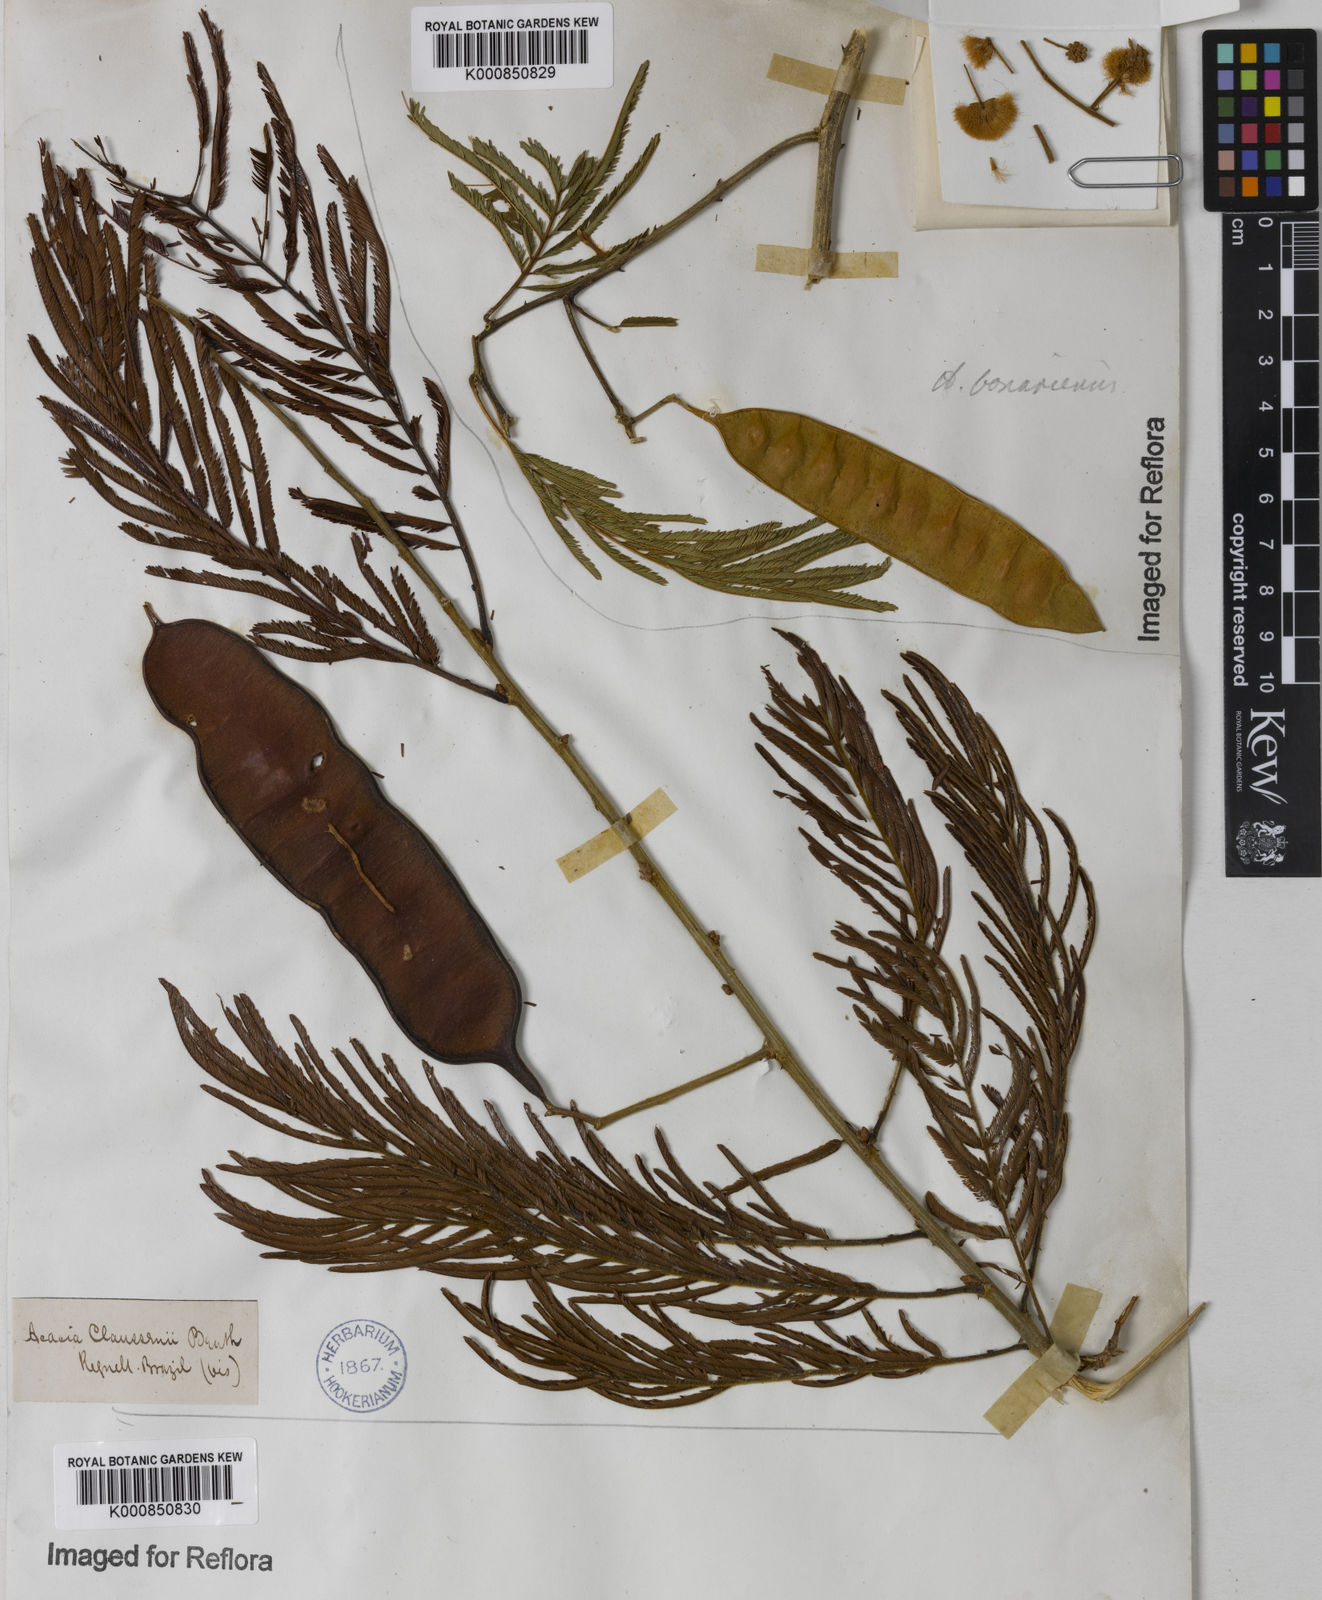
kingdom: Plantae
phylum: Tracheophyta
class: Magnoliopsida
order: Fabales
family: Fabaceae
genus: Senegalia
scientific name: Senegalia tenuifolia
